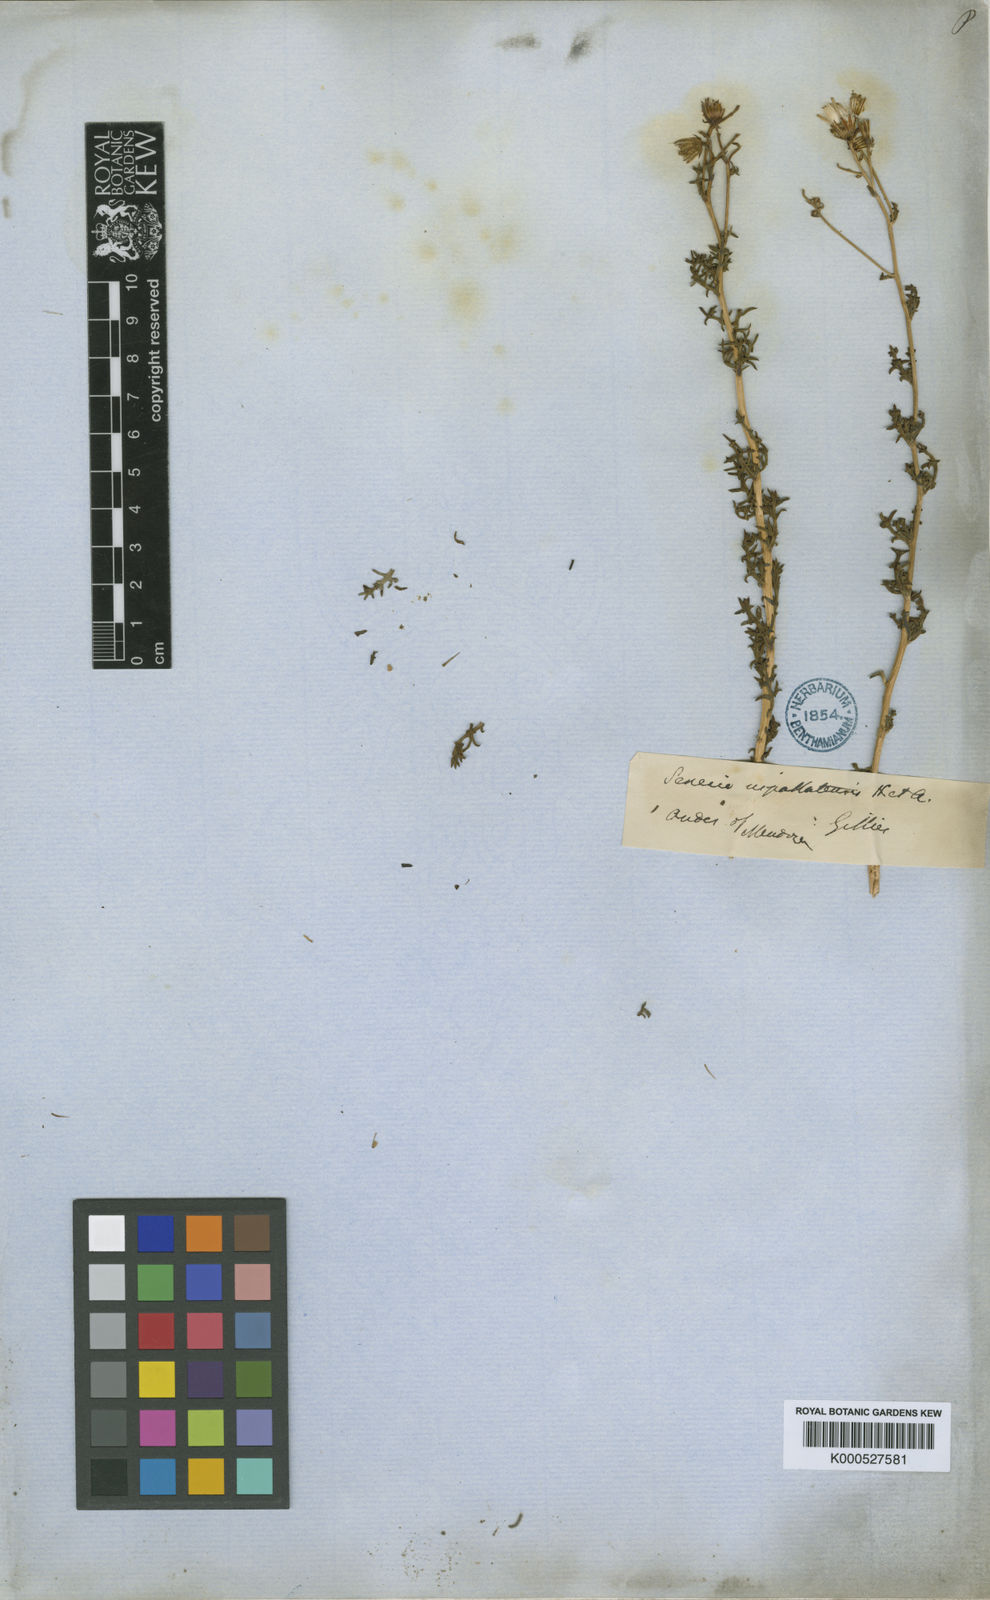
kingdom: Plantae
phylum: Tracheophyta
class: Magnoliopsida
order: Asterales
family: Asteraceae
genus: Senecio
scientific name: Senecio uspallatensis
